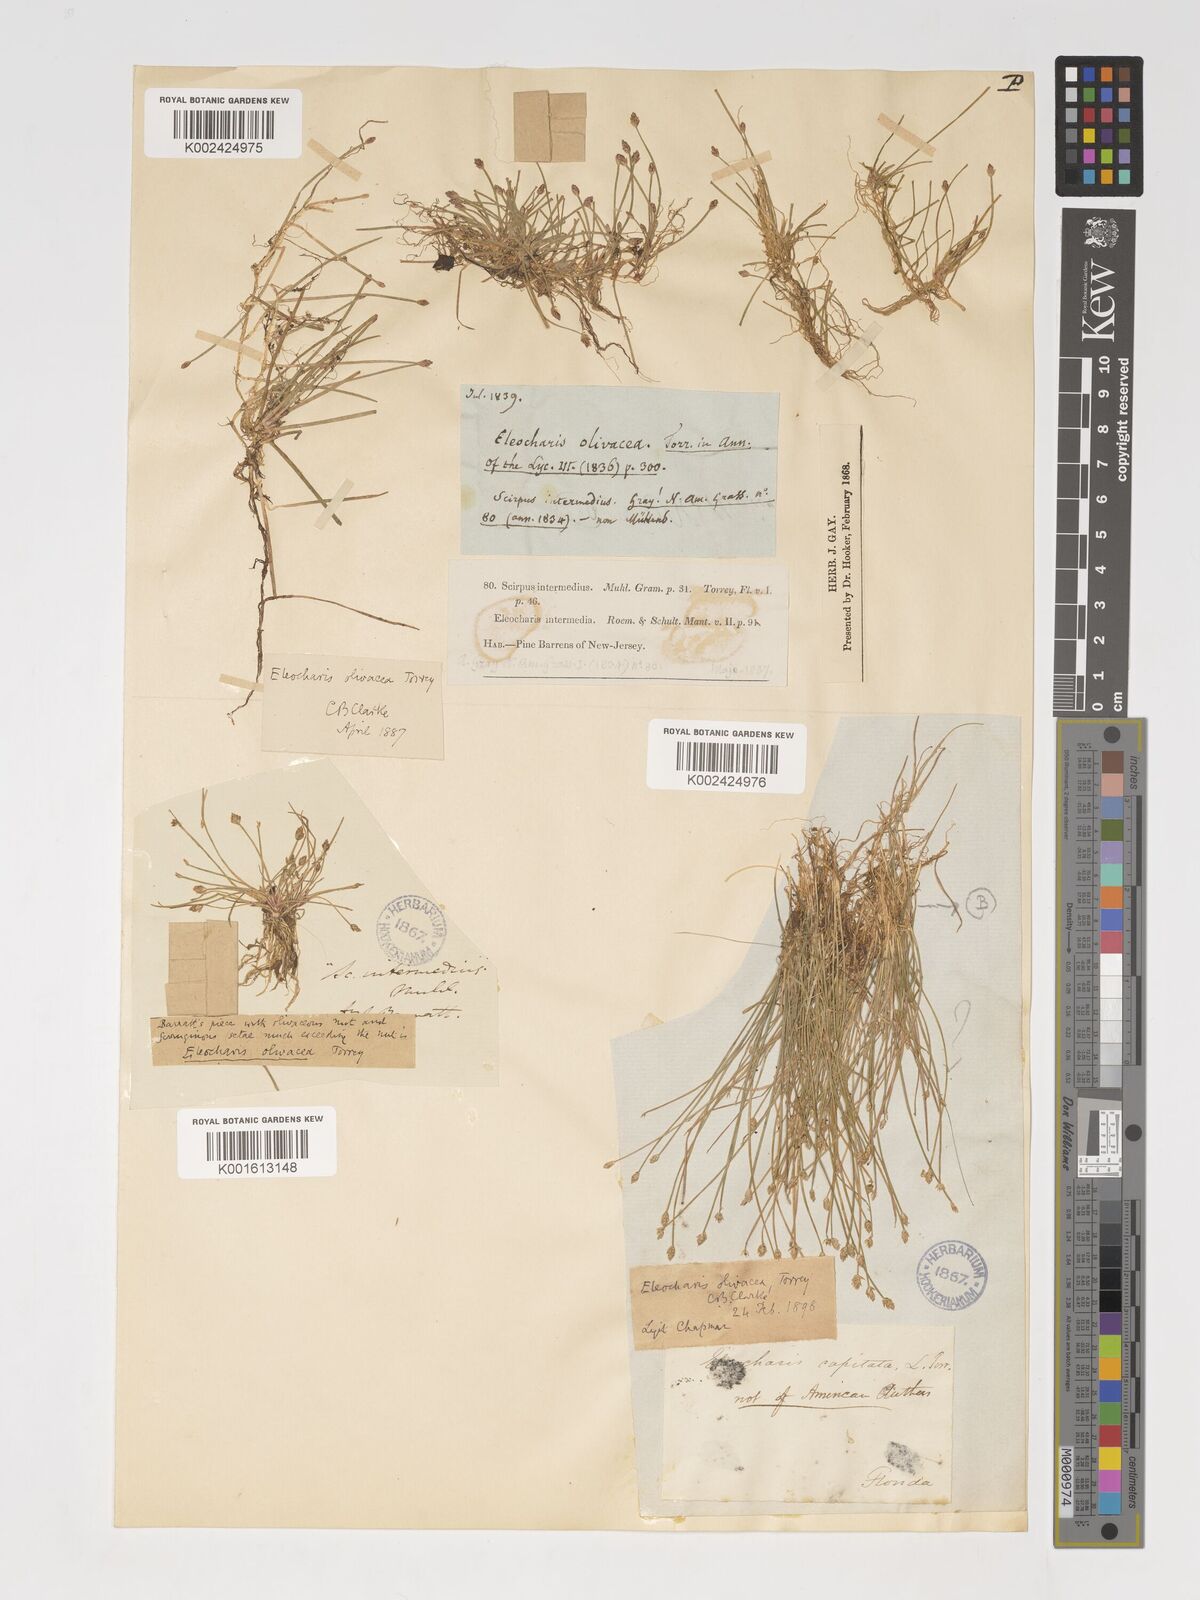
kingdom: Plantae
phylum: Tracheophyta
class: Liliopsida
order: Poales
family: Cyperaceae
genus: Eleocharis
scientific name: Eleocharis flavescens
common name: Yellow spikerush
